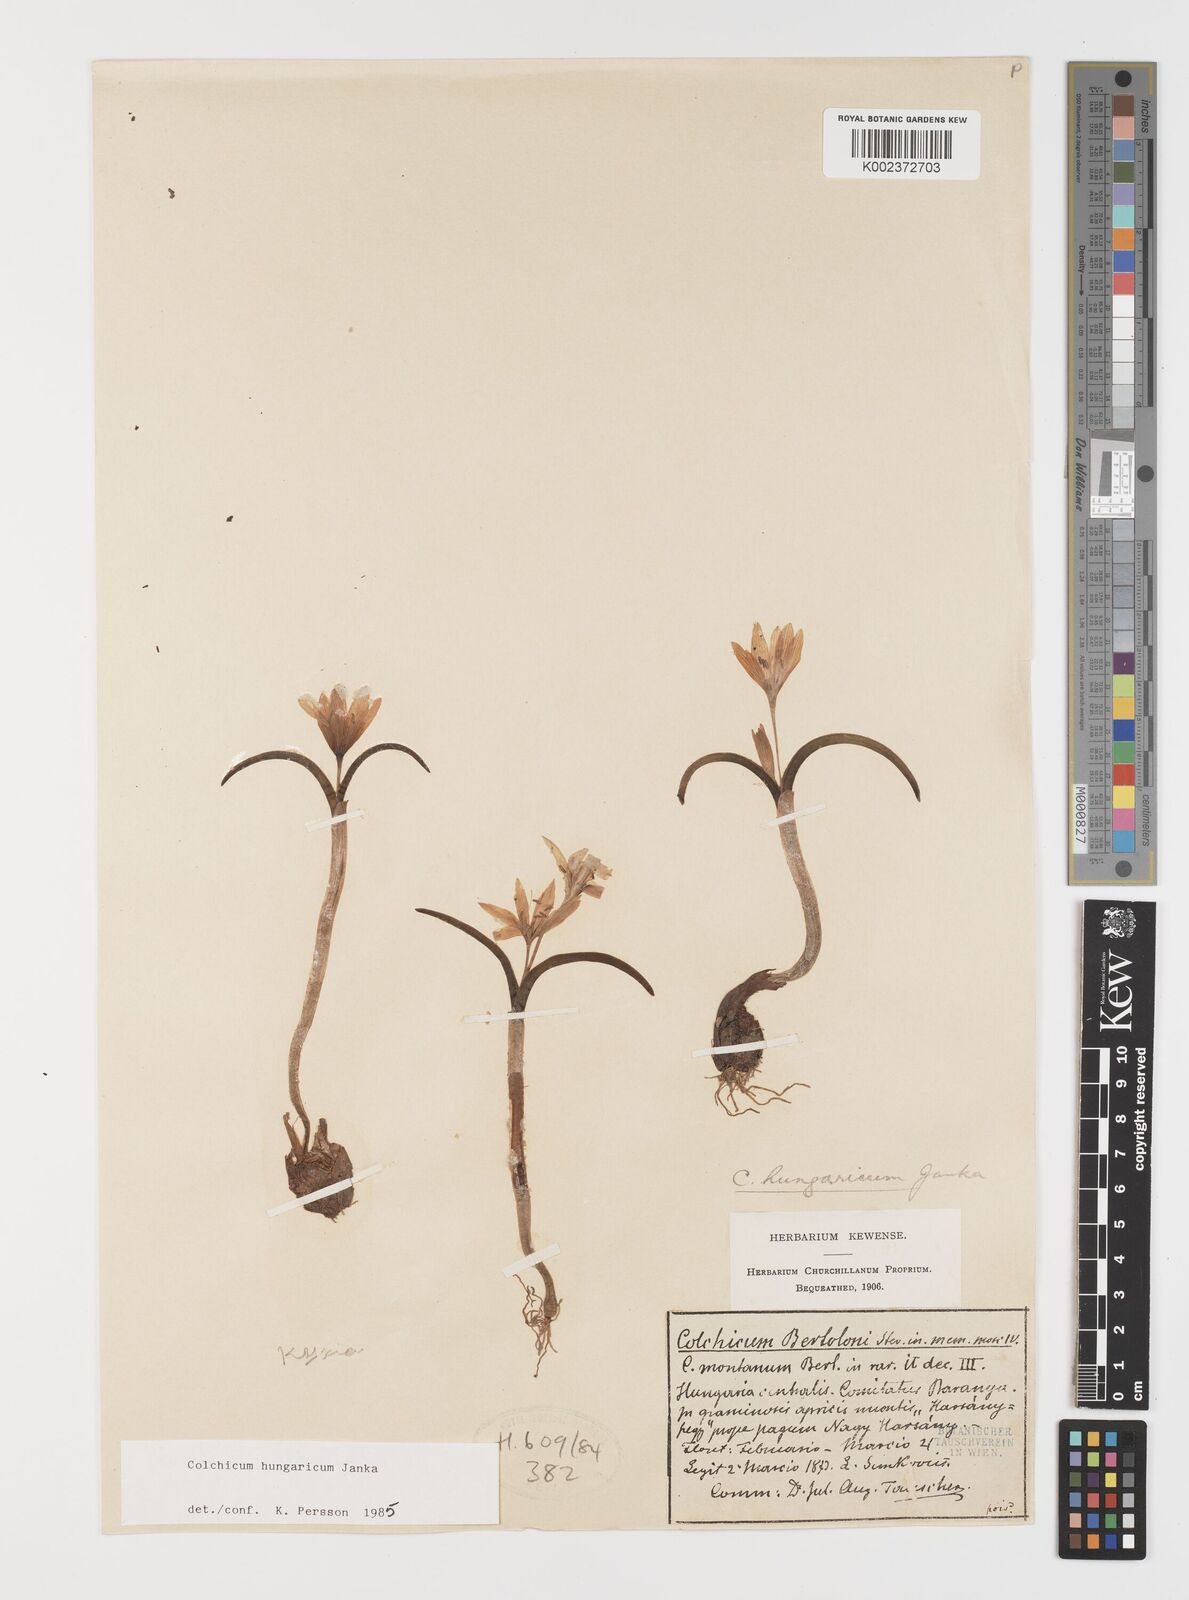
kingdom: Plantae
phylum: Tracheophyta
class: Liliopsida
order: Liliales
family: Colchicaceae
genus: Colchicum
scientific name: Colchicum hungaricum
